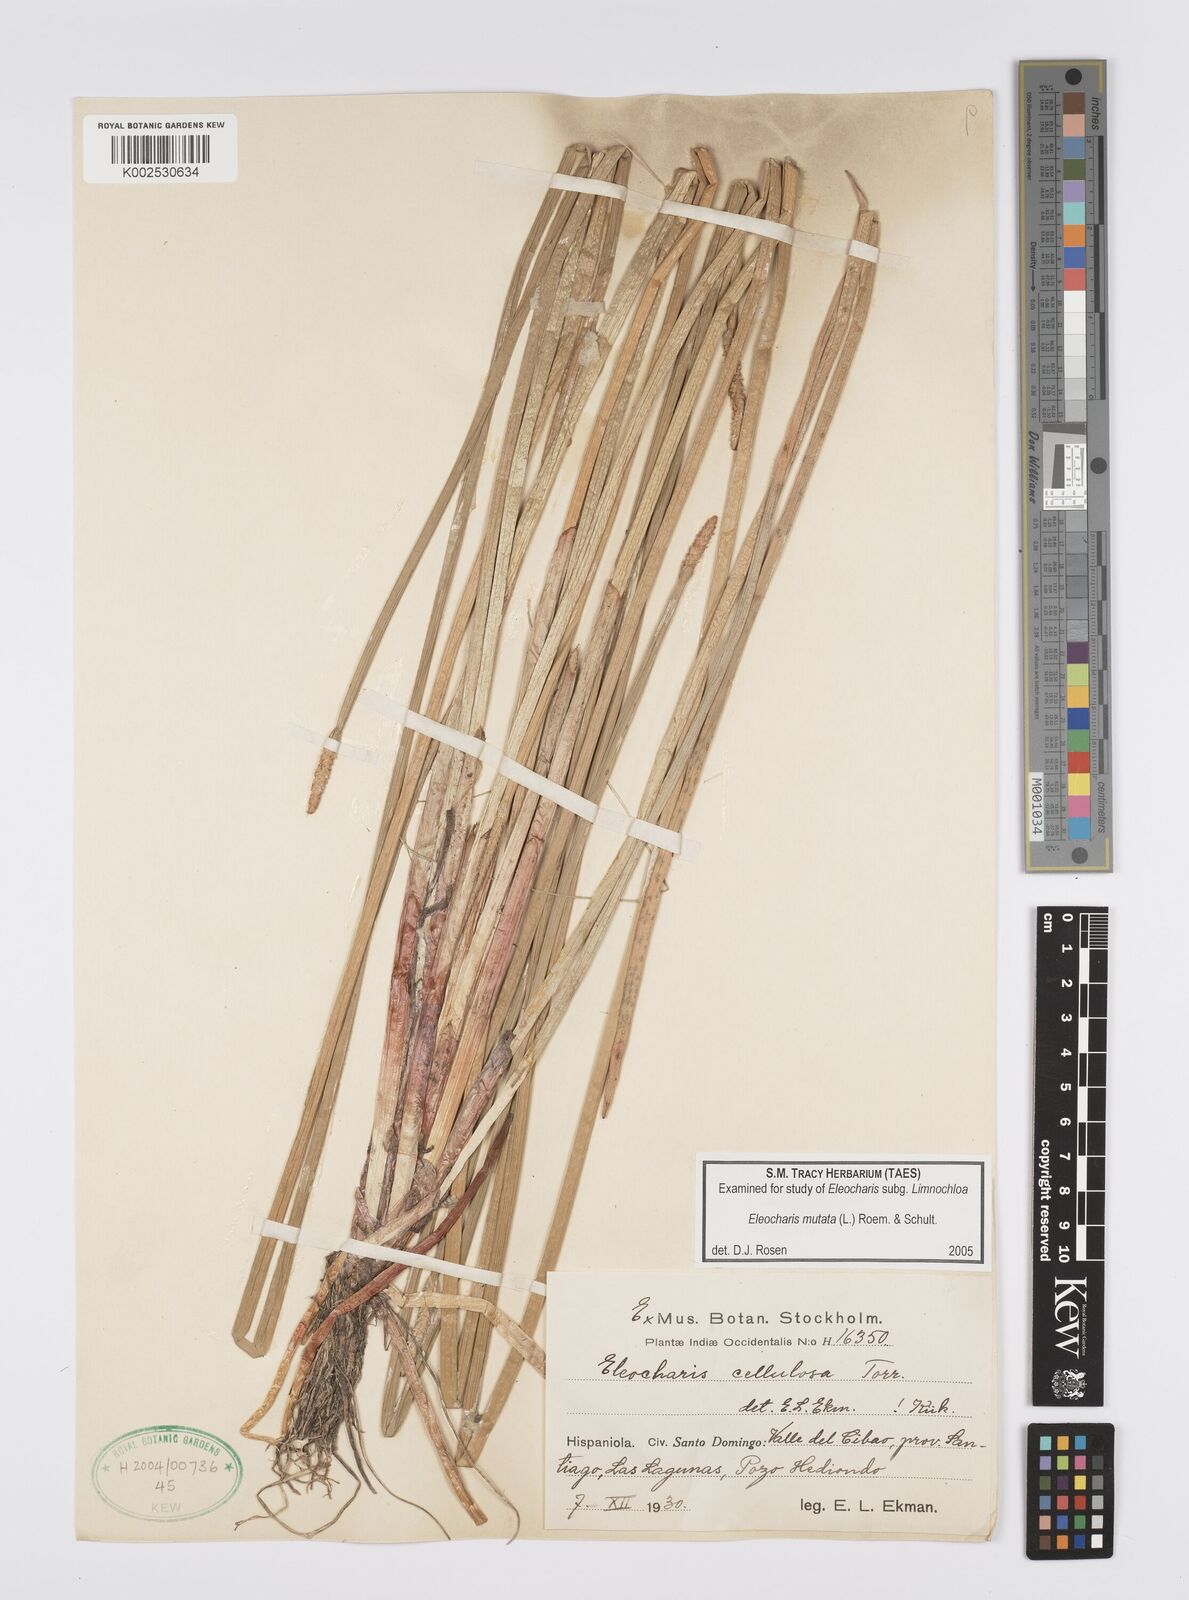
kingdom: Plantae
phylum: Tracheophyta
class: Liliopsida
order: Poales
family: Cyperaceae
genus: Eleocharis
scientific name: Eleocharis mutata
